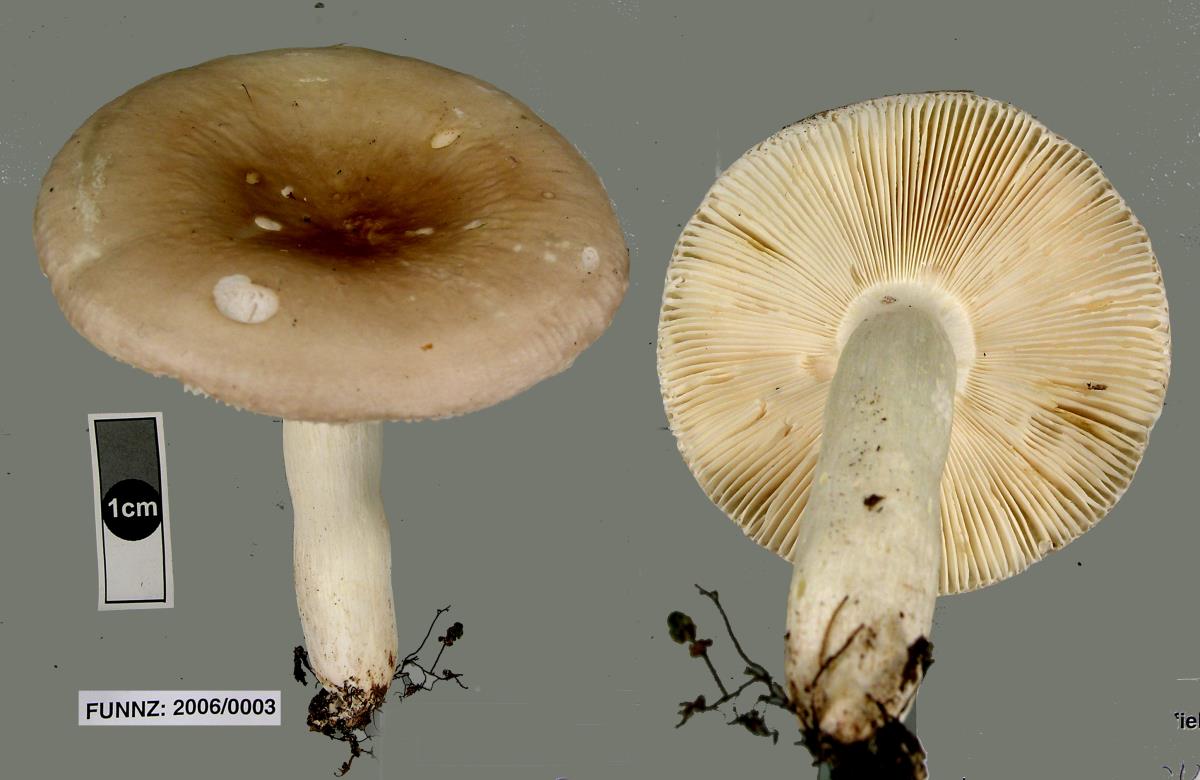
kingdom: Fungi
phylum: Basidiomycota
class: Agaricomycetes
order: Russulales
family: Russulaceae
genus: Russula
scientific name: Russula purpureotincta
